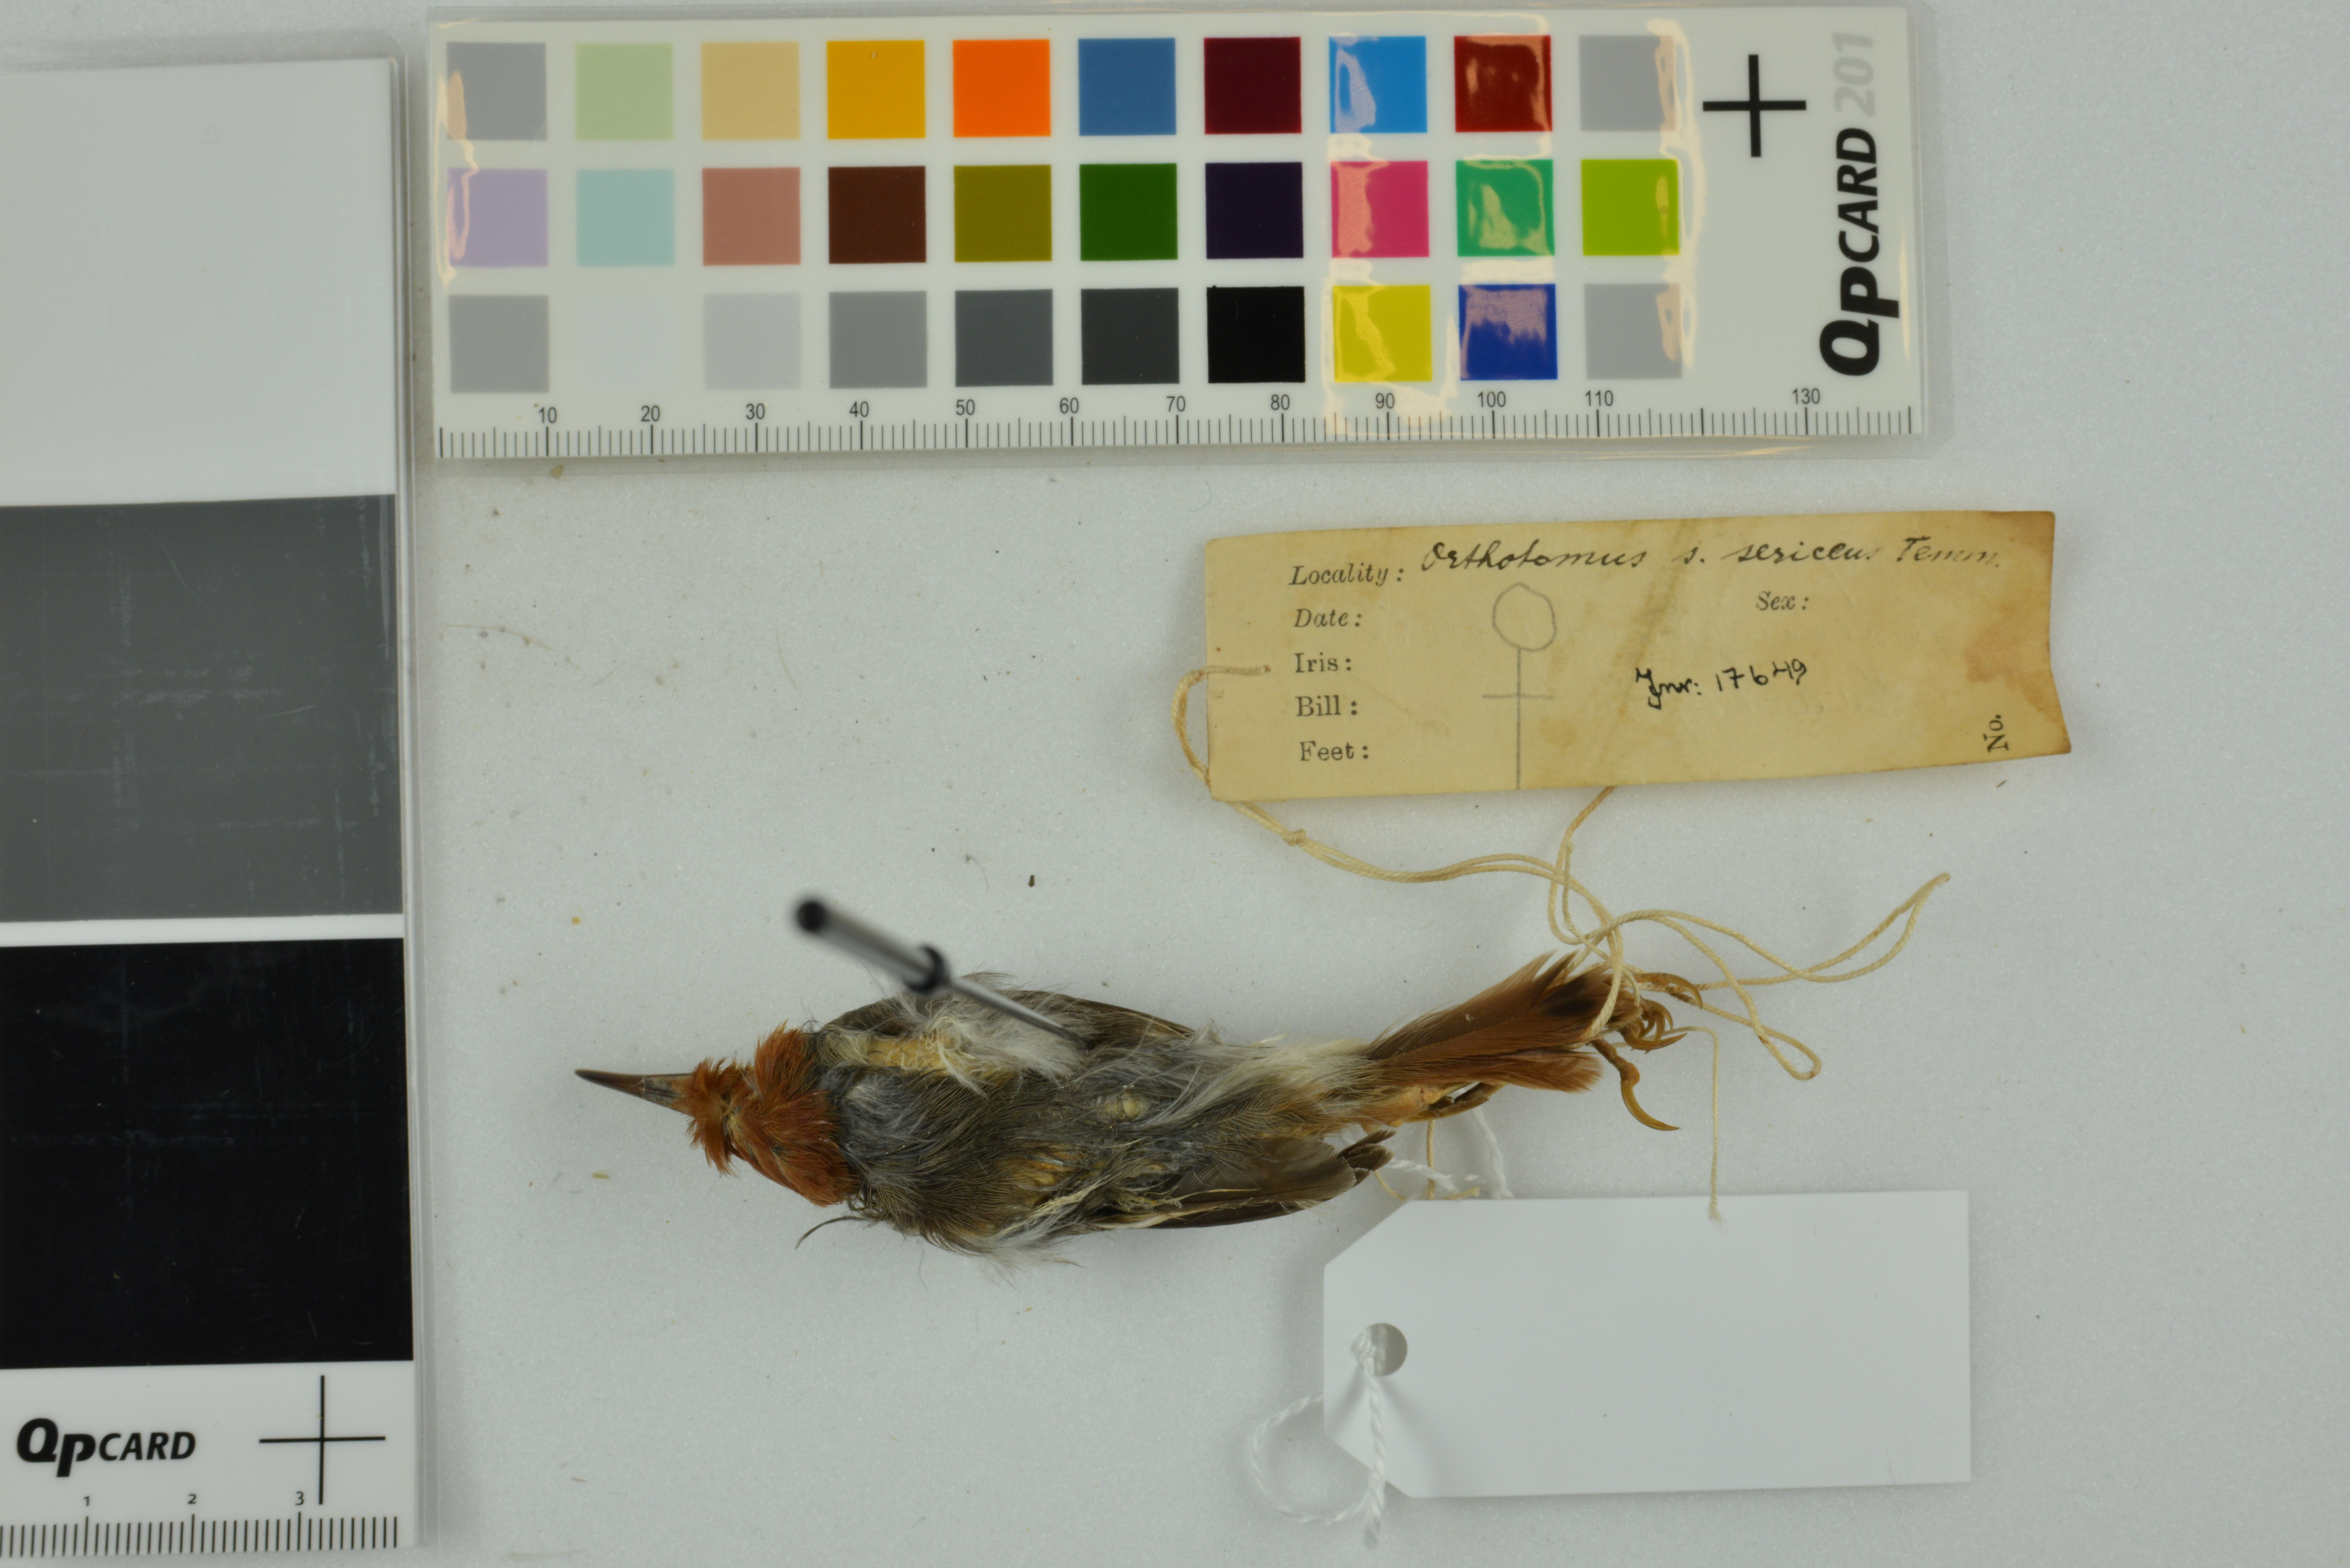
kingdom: Animalia
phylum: Chordata
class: Aves
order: Passeriformes
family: Cisticolidae
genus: Orthotomus
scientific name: Orthotomus sericeus
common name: Rufous-tailed tailorbird
